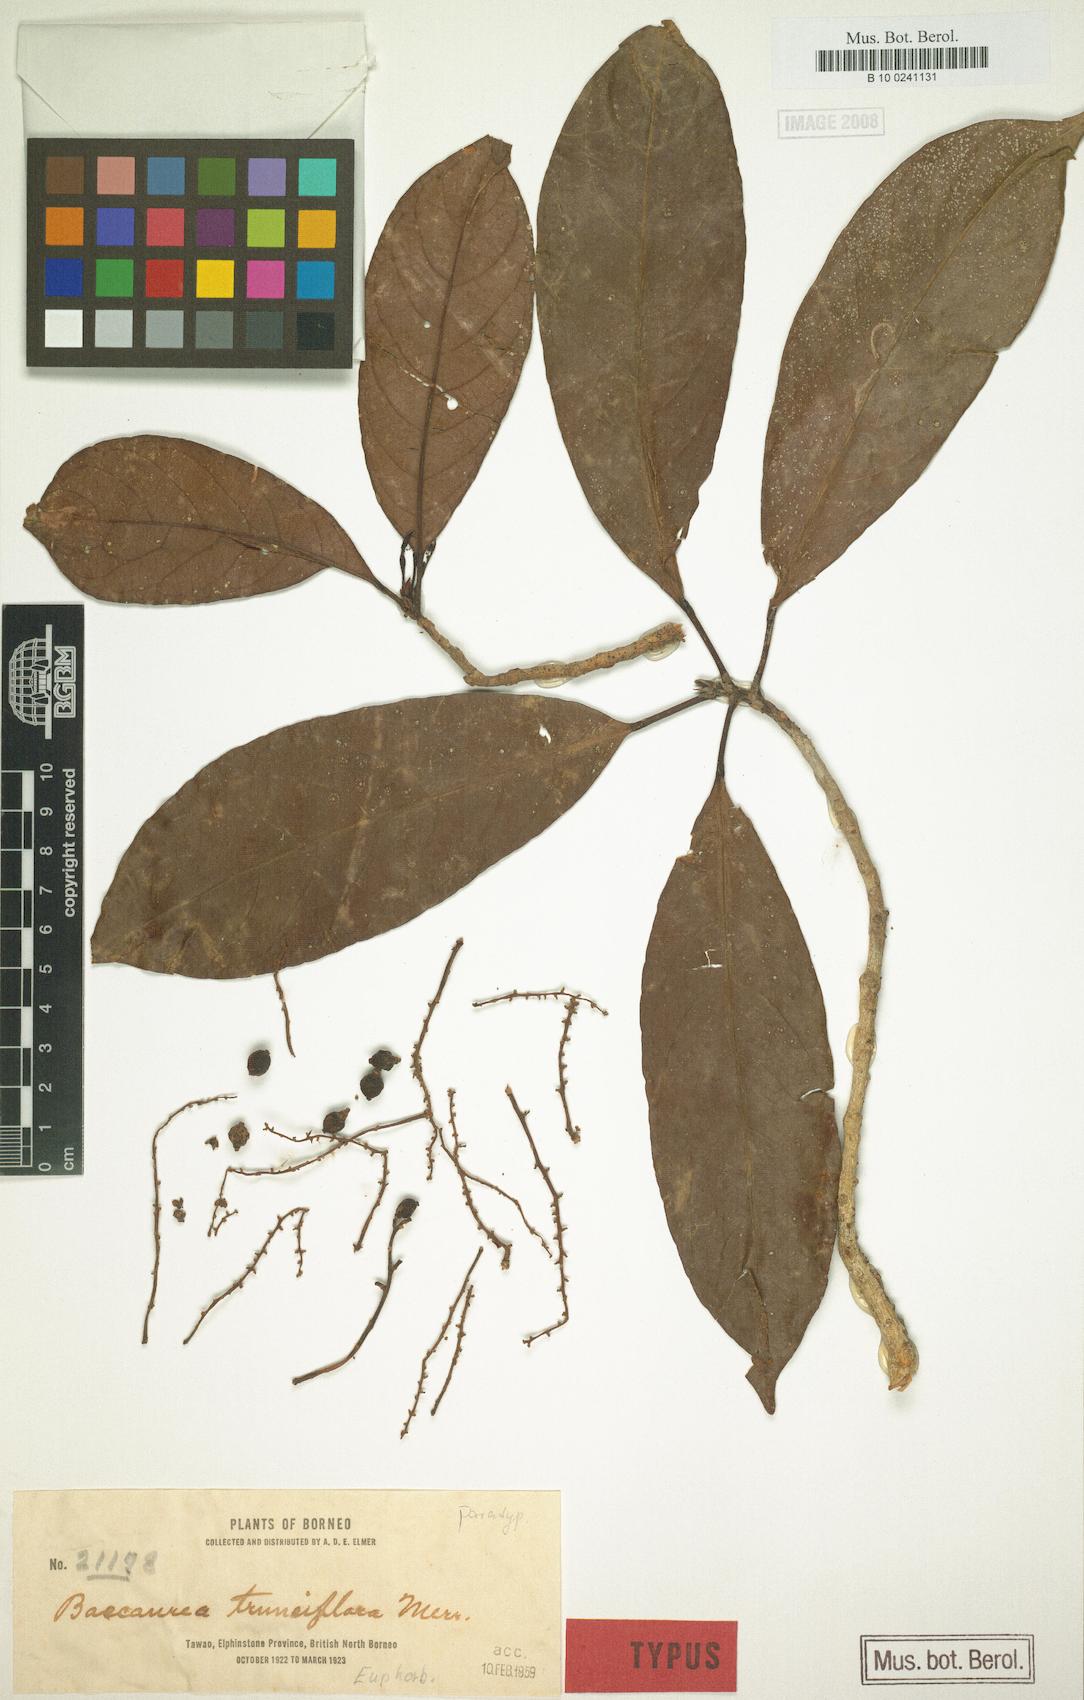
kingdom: Plantae
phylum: Tracheophyta
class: Magnoliopsida
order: Malpighiales
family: Phyllanthaceae
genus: Baccaurea
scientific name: Baccaurea odoratissima
